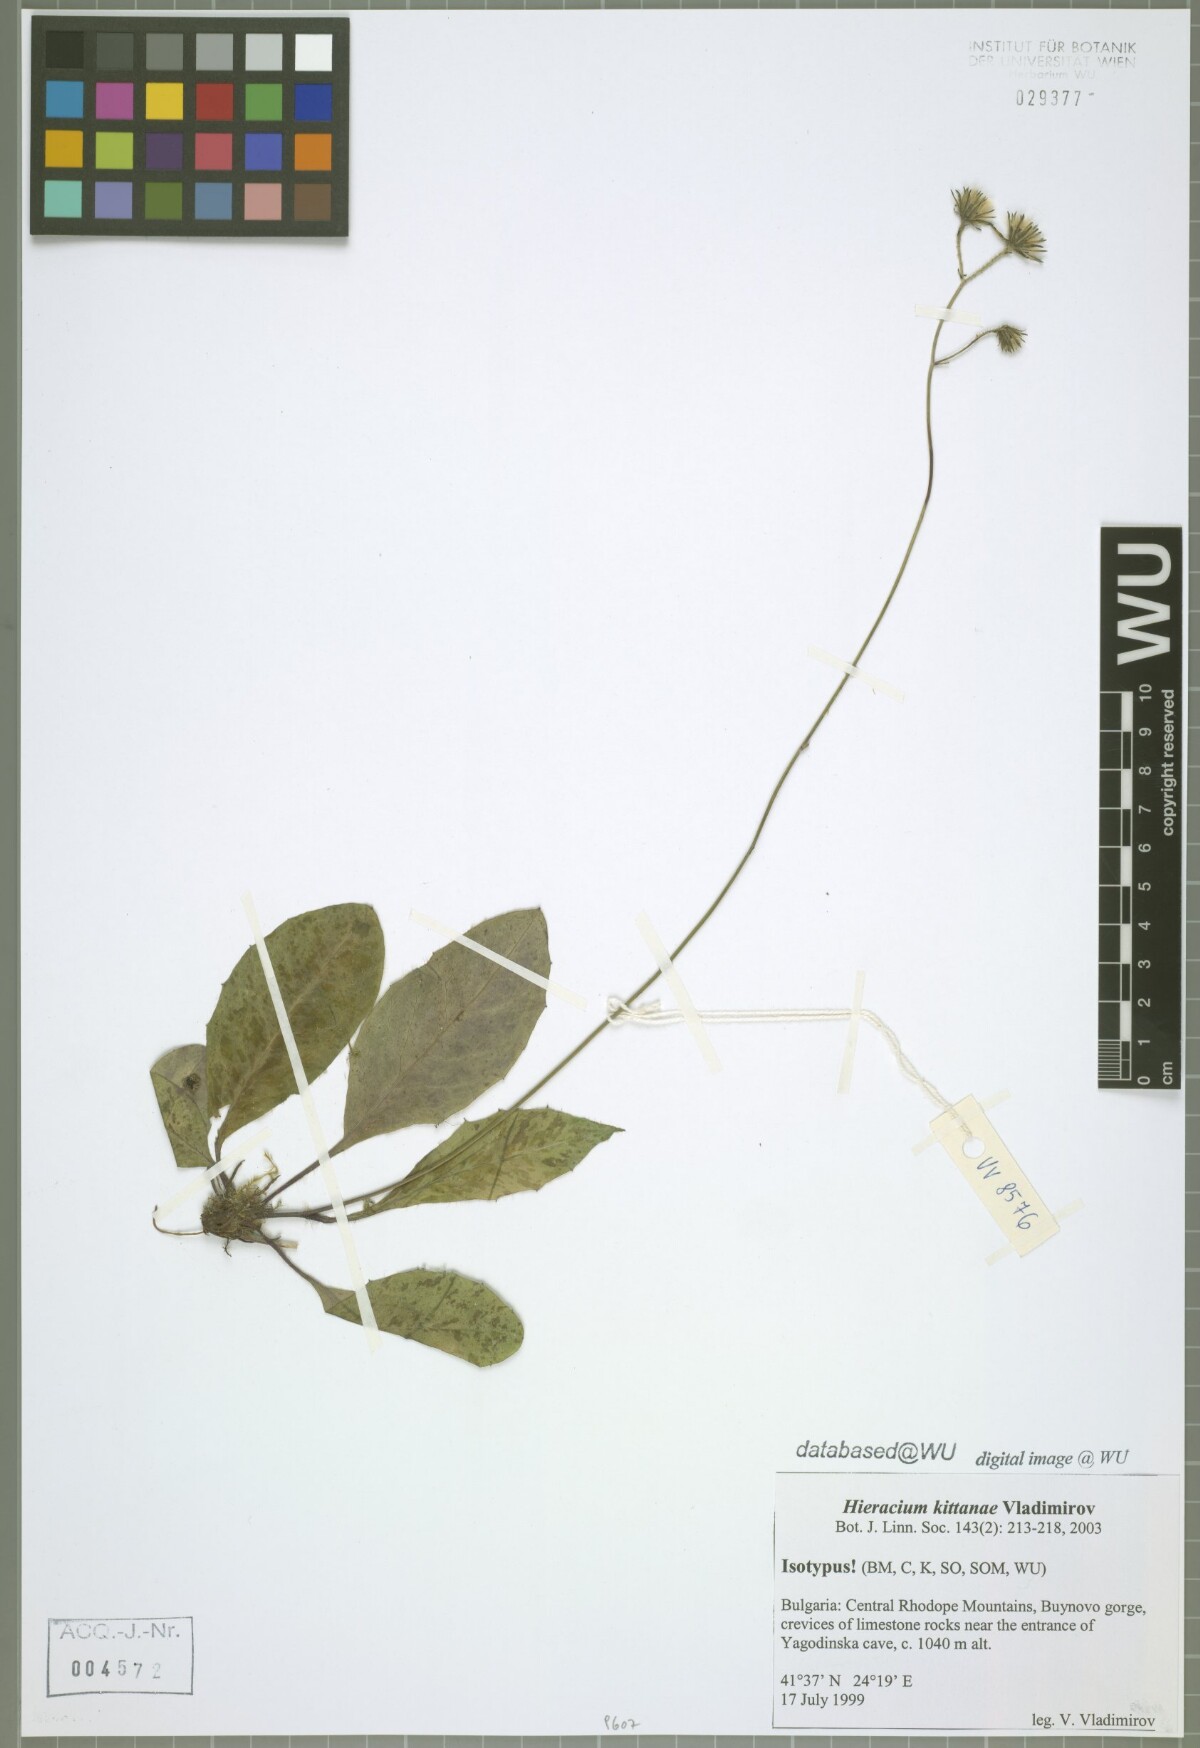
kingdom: Plantae
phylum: Tracheophyta
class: Magnoliopsida
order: Asterales
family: Asteraceae
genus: Hieracium
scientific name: Hieracium bifidum
